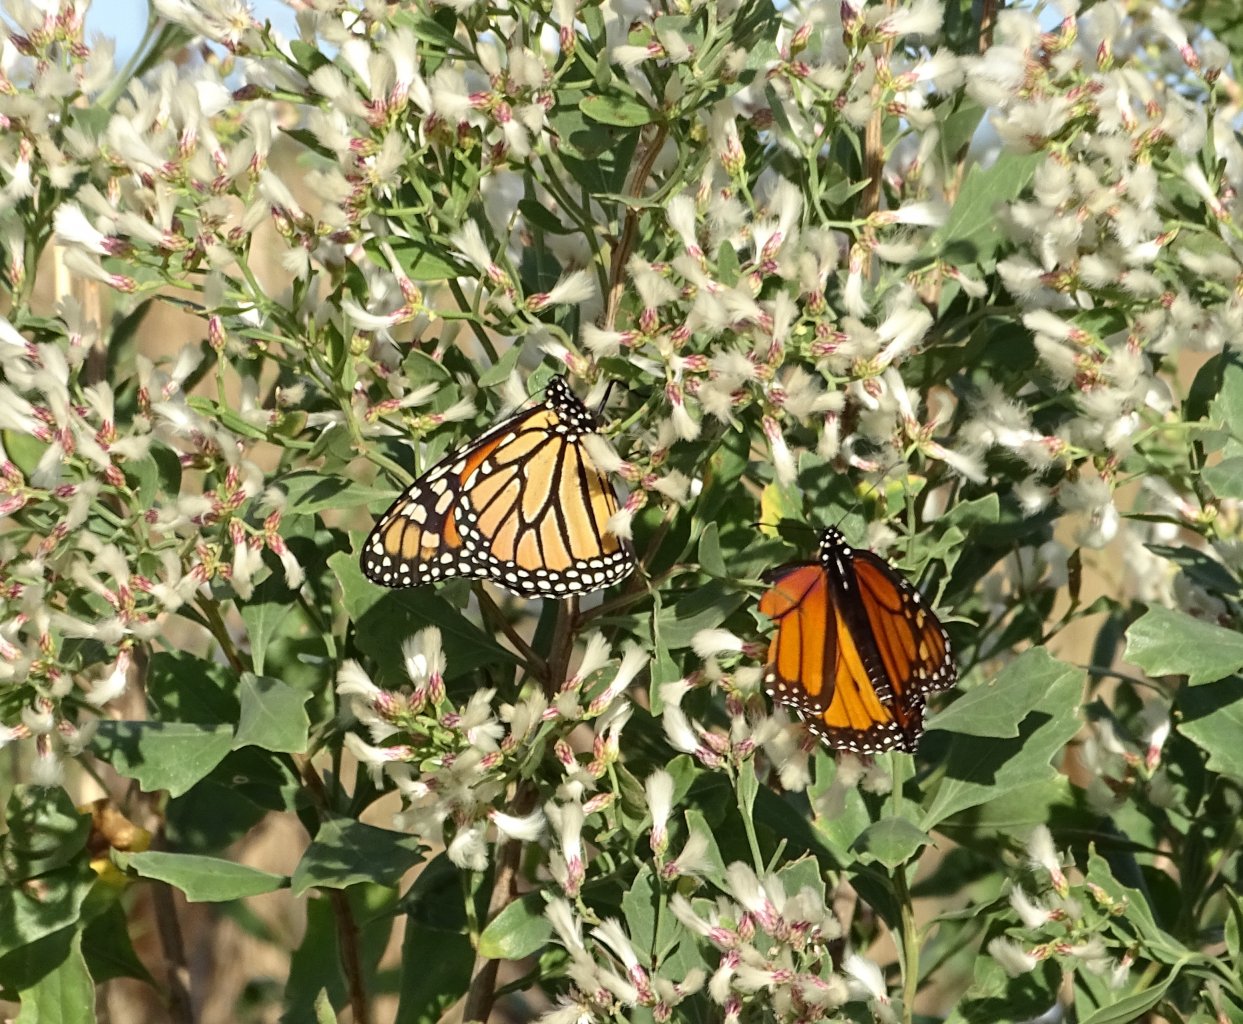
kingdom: Animalia
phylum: Arthropoda
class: Insecta
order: Lepidoptera
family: Nymphalidae
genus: Danaus
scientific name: Danaus plexippus
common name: Monarch
